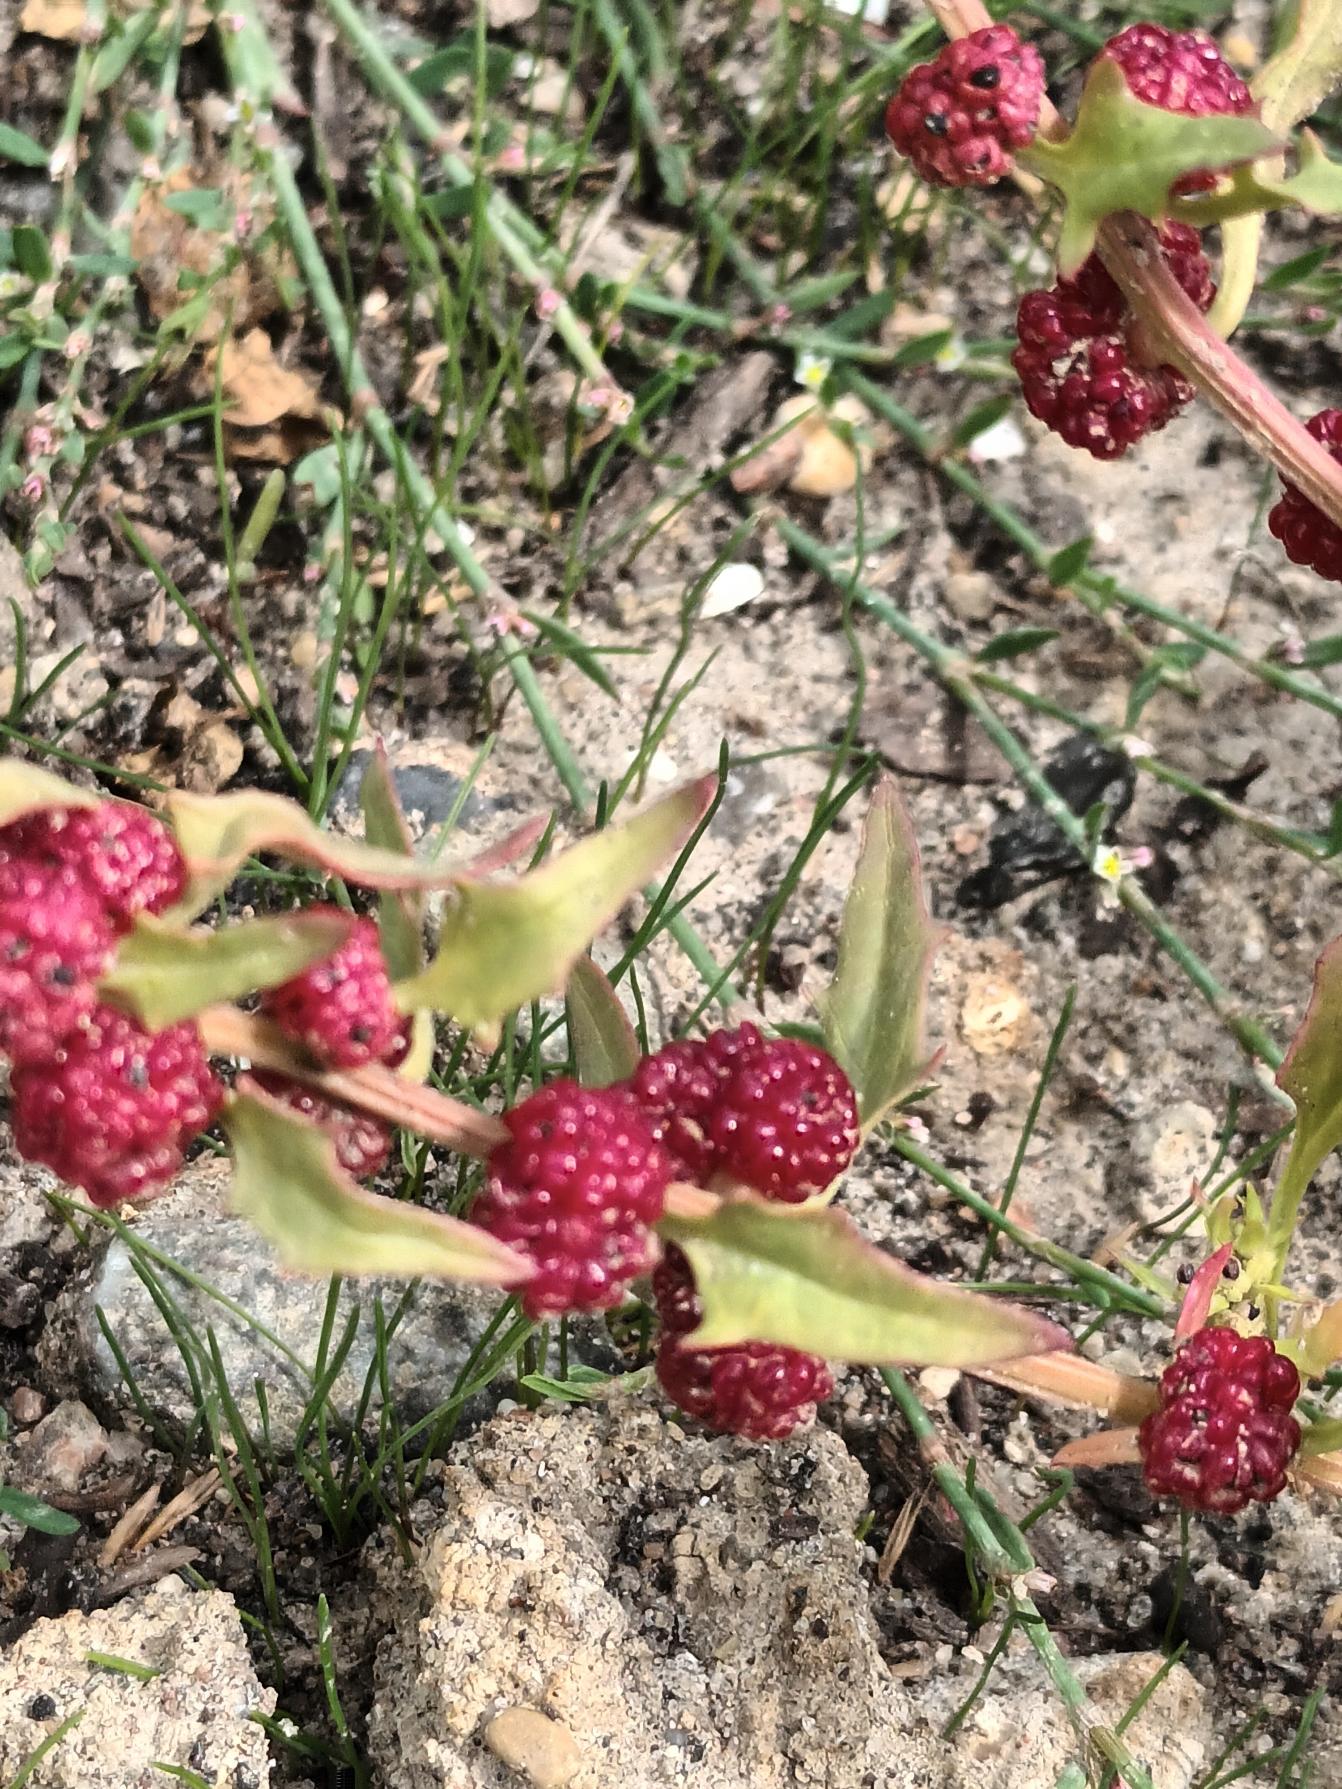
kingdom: Plantae
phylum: Tracheophyta
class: Magnoliopsida
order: Caryophyllales
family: Amaranthaceae
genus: Blitum
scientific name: Blitum virgatum
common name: Aks-jordbærspinat
